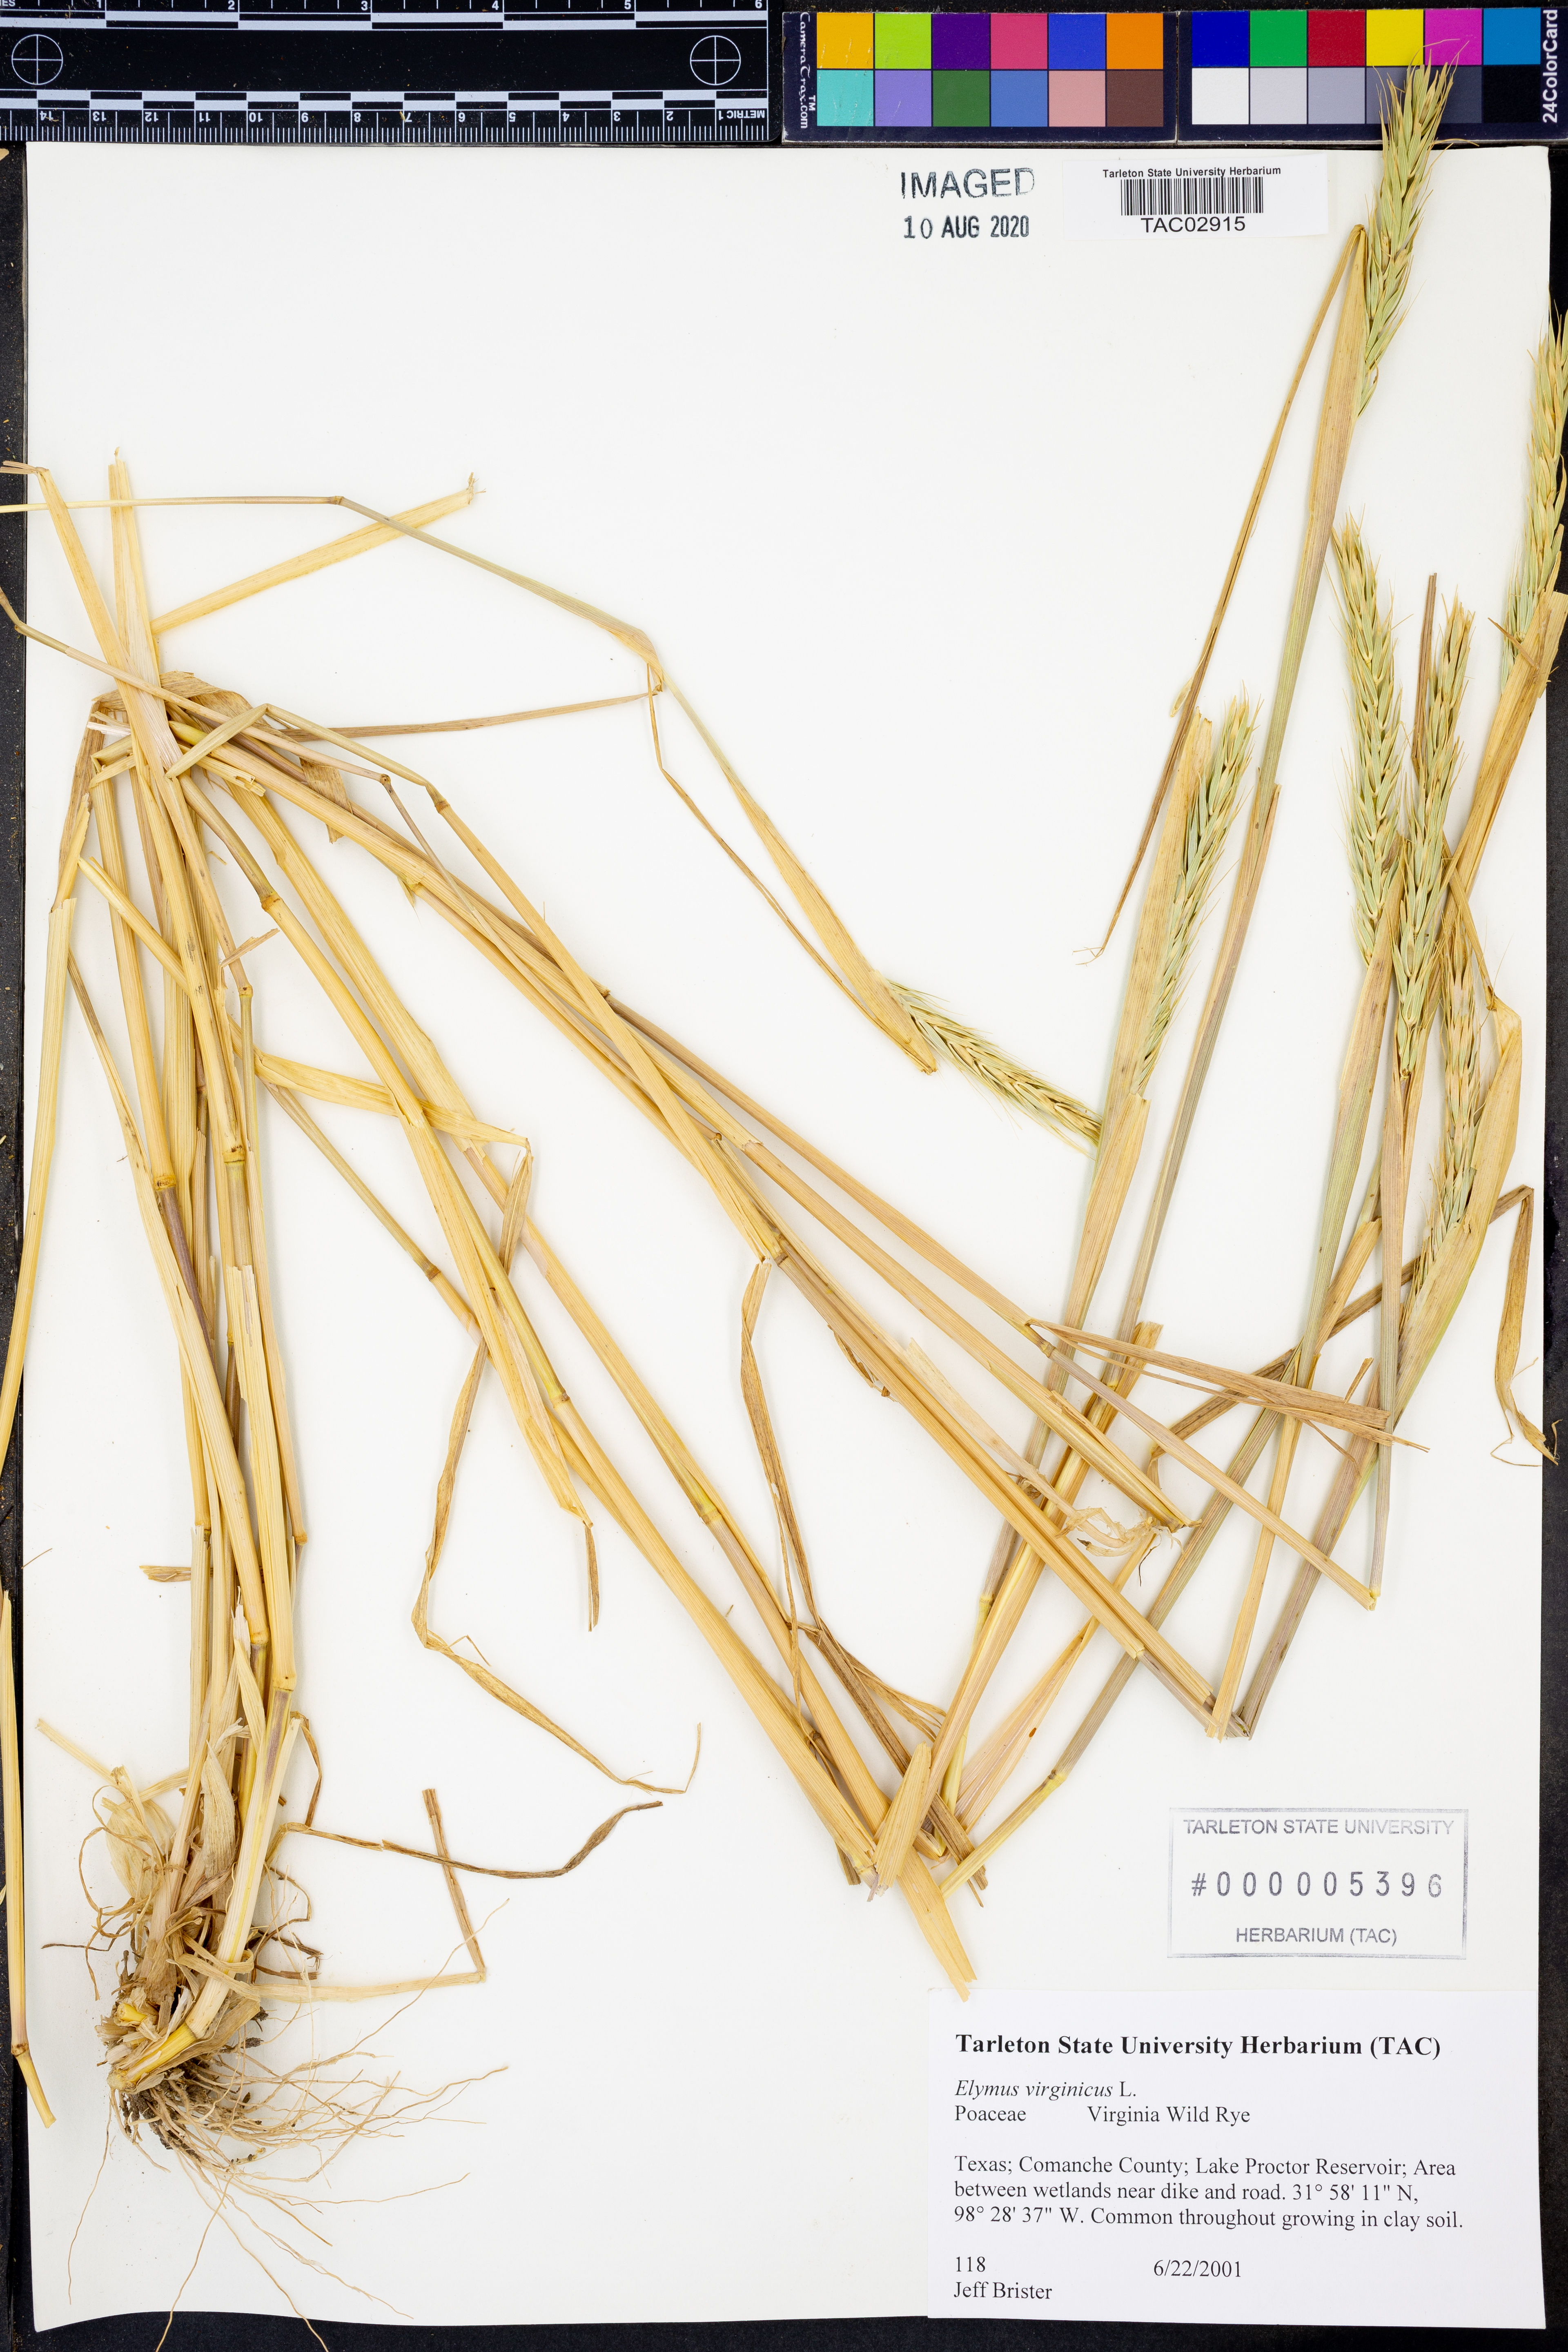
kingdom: Plantae
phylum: Tracheophyta
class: Liliopsida
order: Poales
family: Poaceae
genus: Elymus
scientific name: Elymus virginicus
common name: Common eastern wildrye
